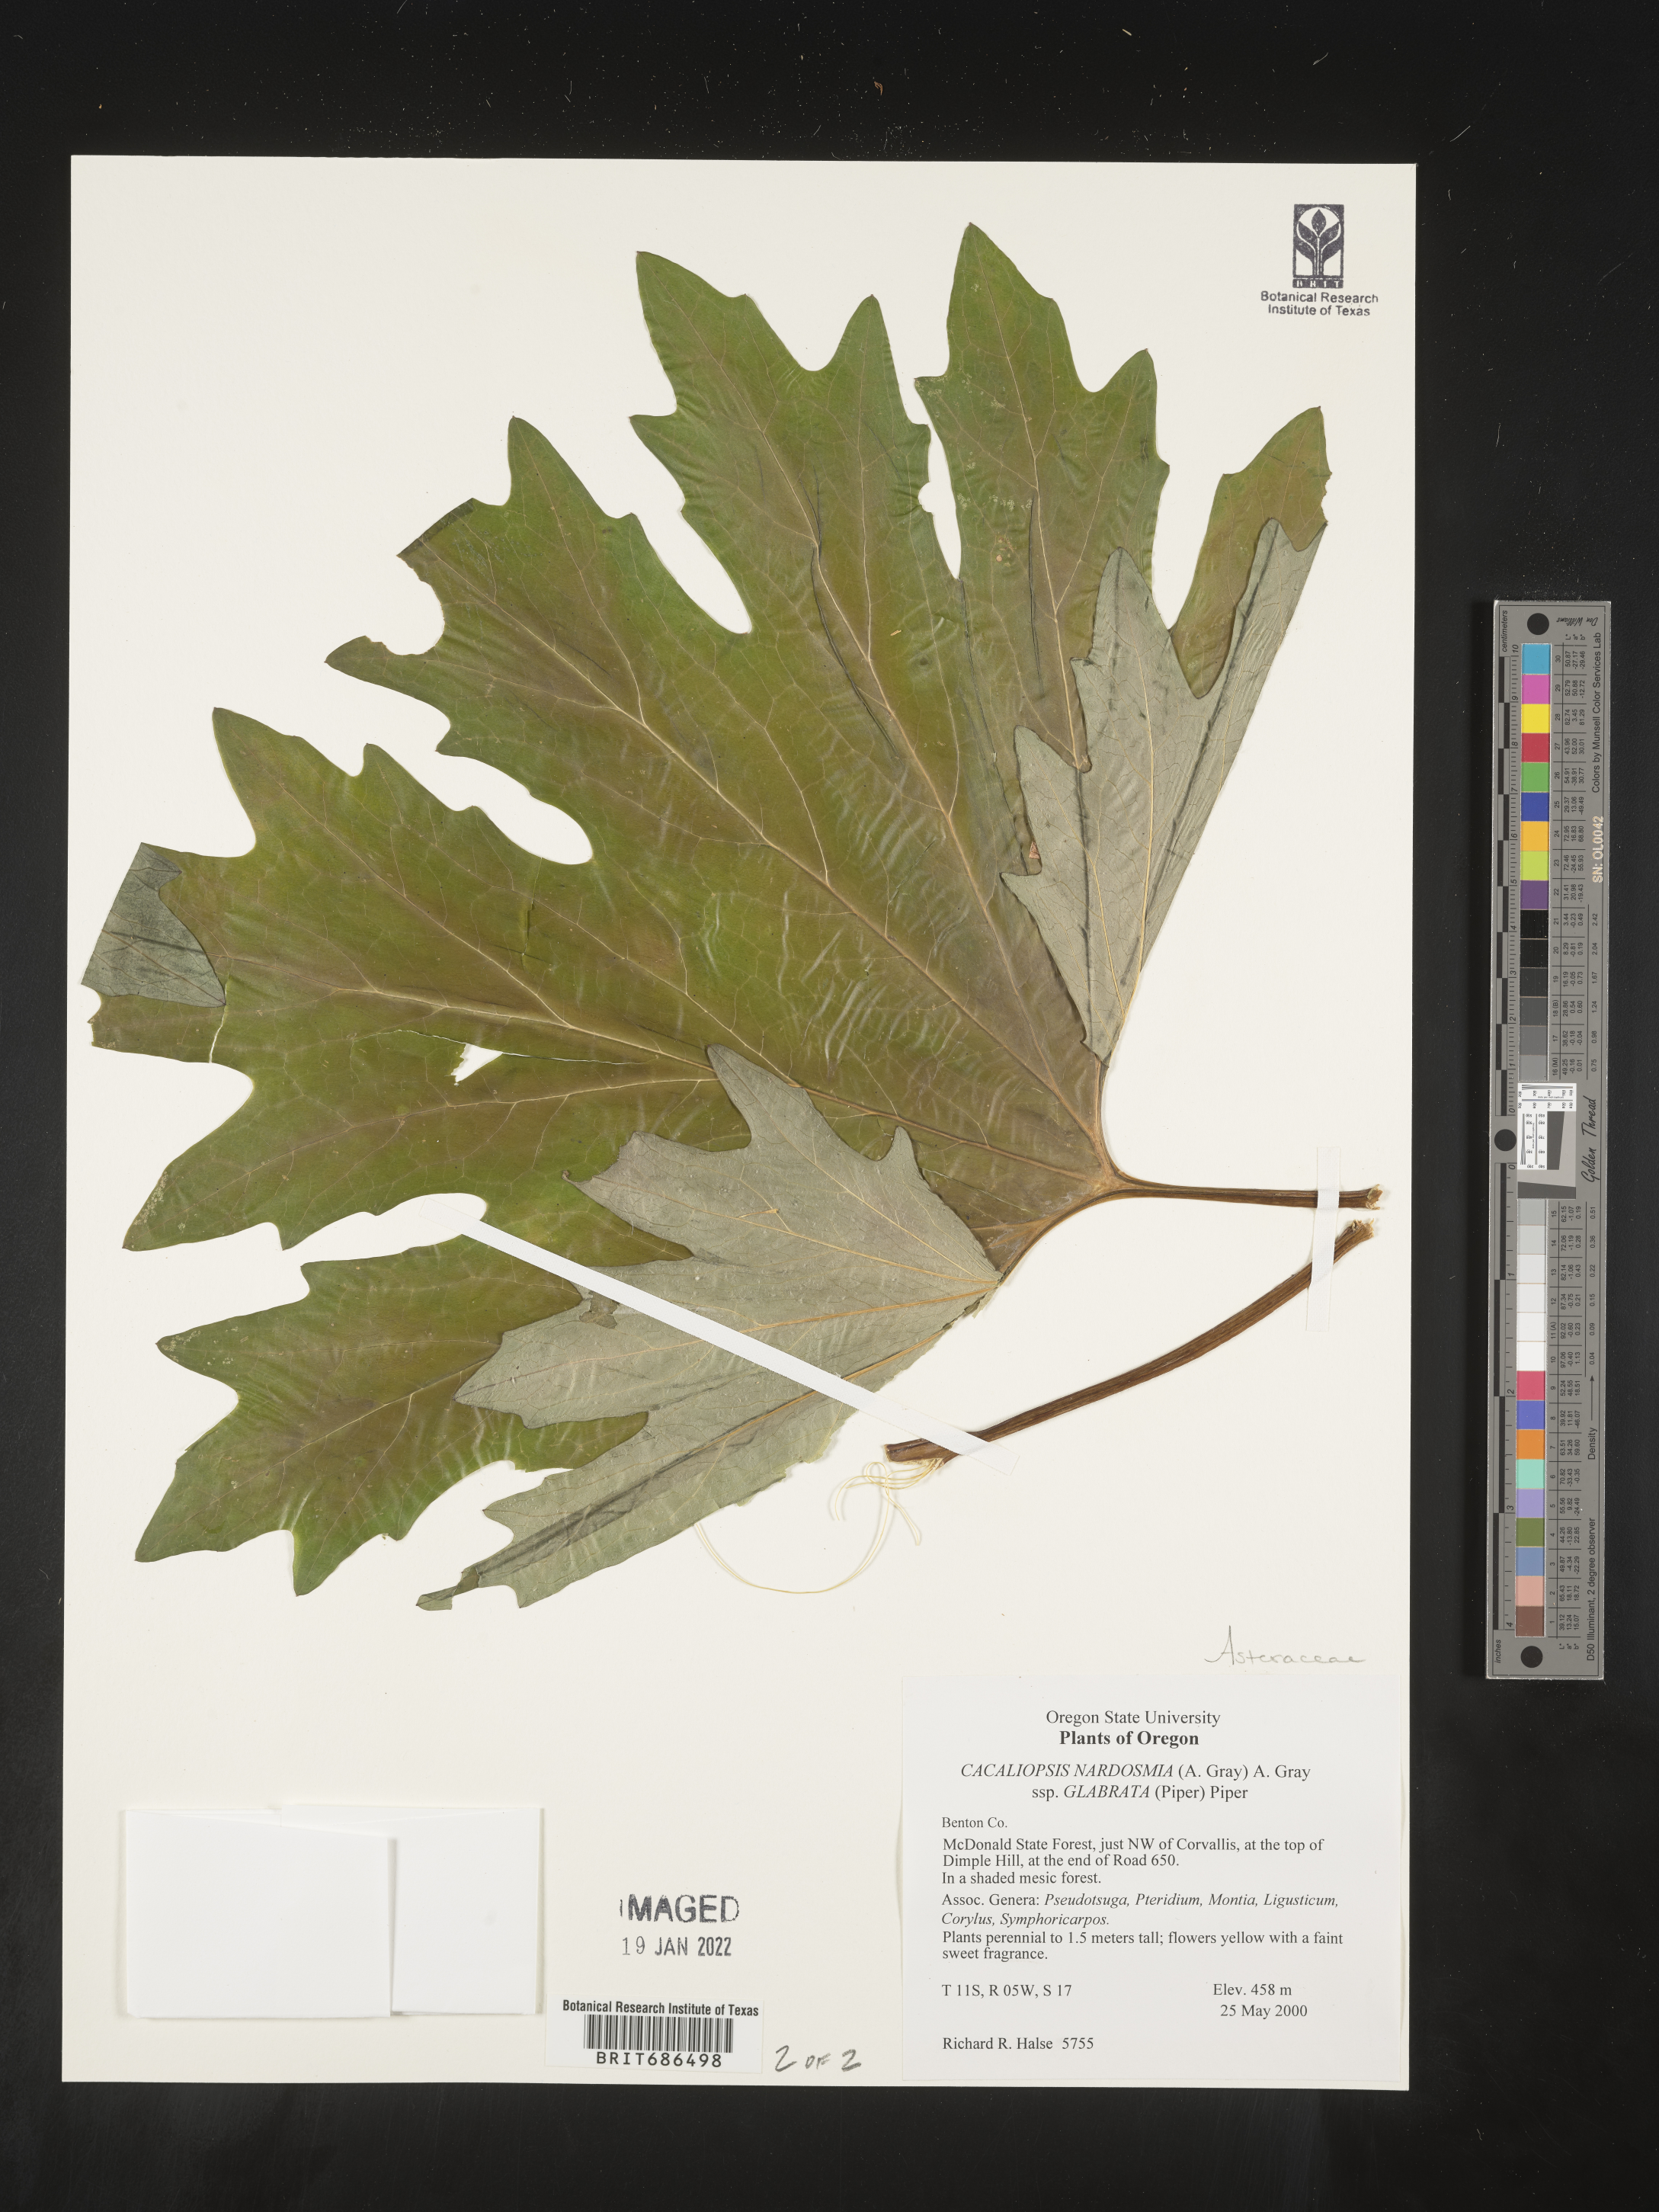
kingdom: Plantae
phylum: Tracheophyta
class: Magnoliopsida
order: Asterales
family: Asteraceae
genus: Cacaliopsis
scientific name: Cacaliopsis
